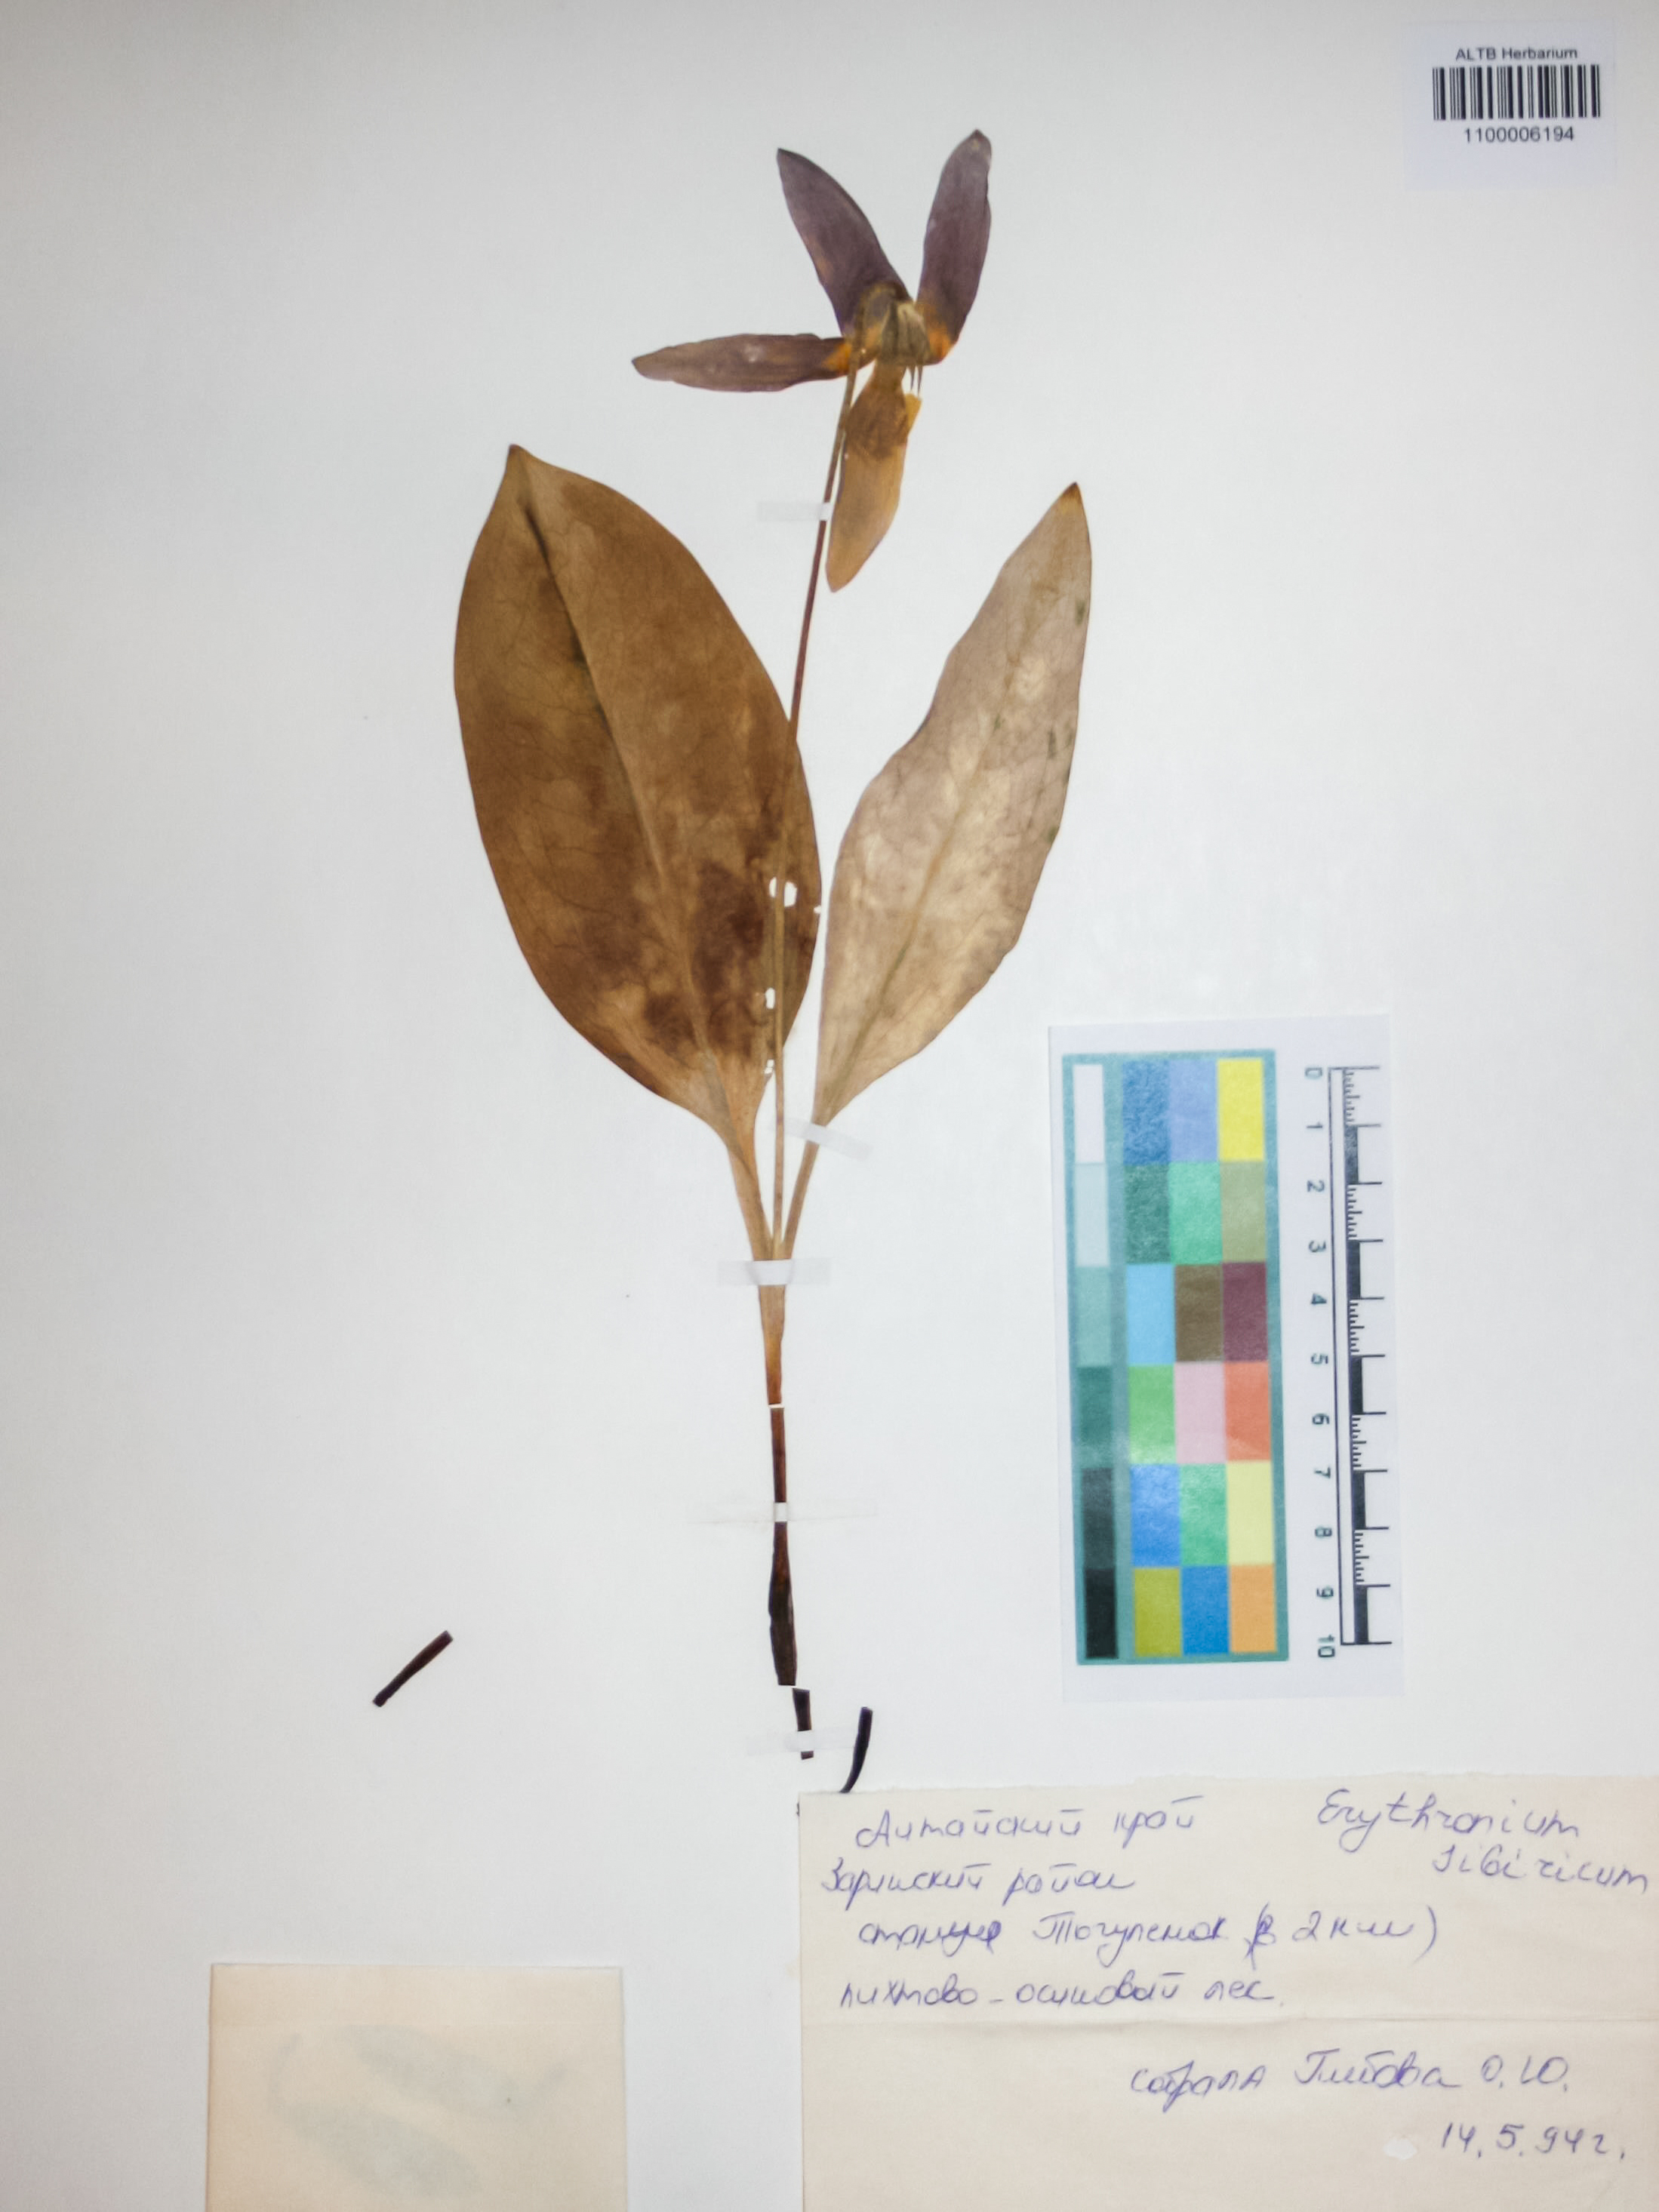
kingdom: Plantae
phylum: Tracheophyta
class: Liliopsida
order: Liliales
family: Liliaceae
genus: Erythronium
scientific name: Erythronium sibiricum
